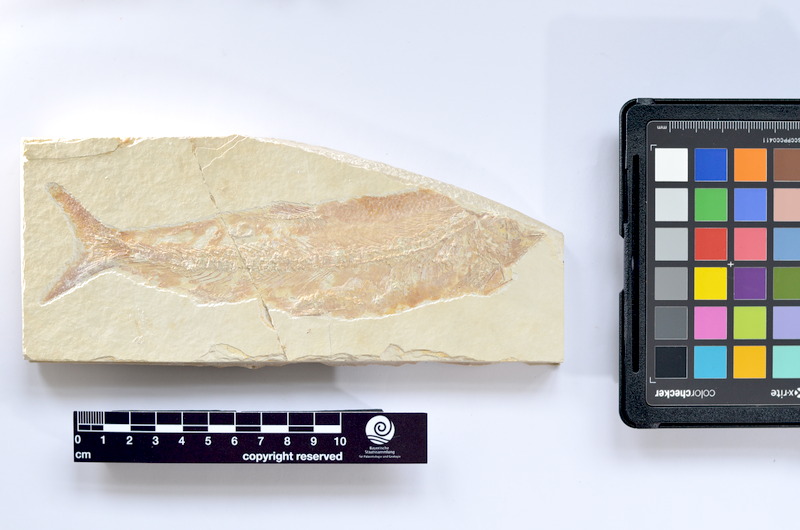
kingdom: Animalia
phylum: Chordata
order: Elopiformes
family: Anaethalionidae
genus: Anaethalion
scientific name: Anaethalion knorri
